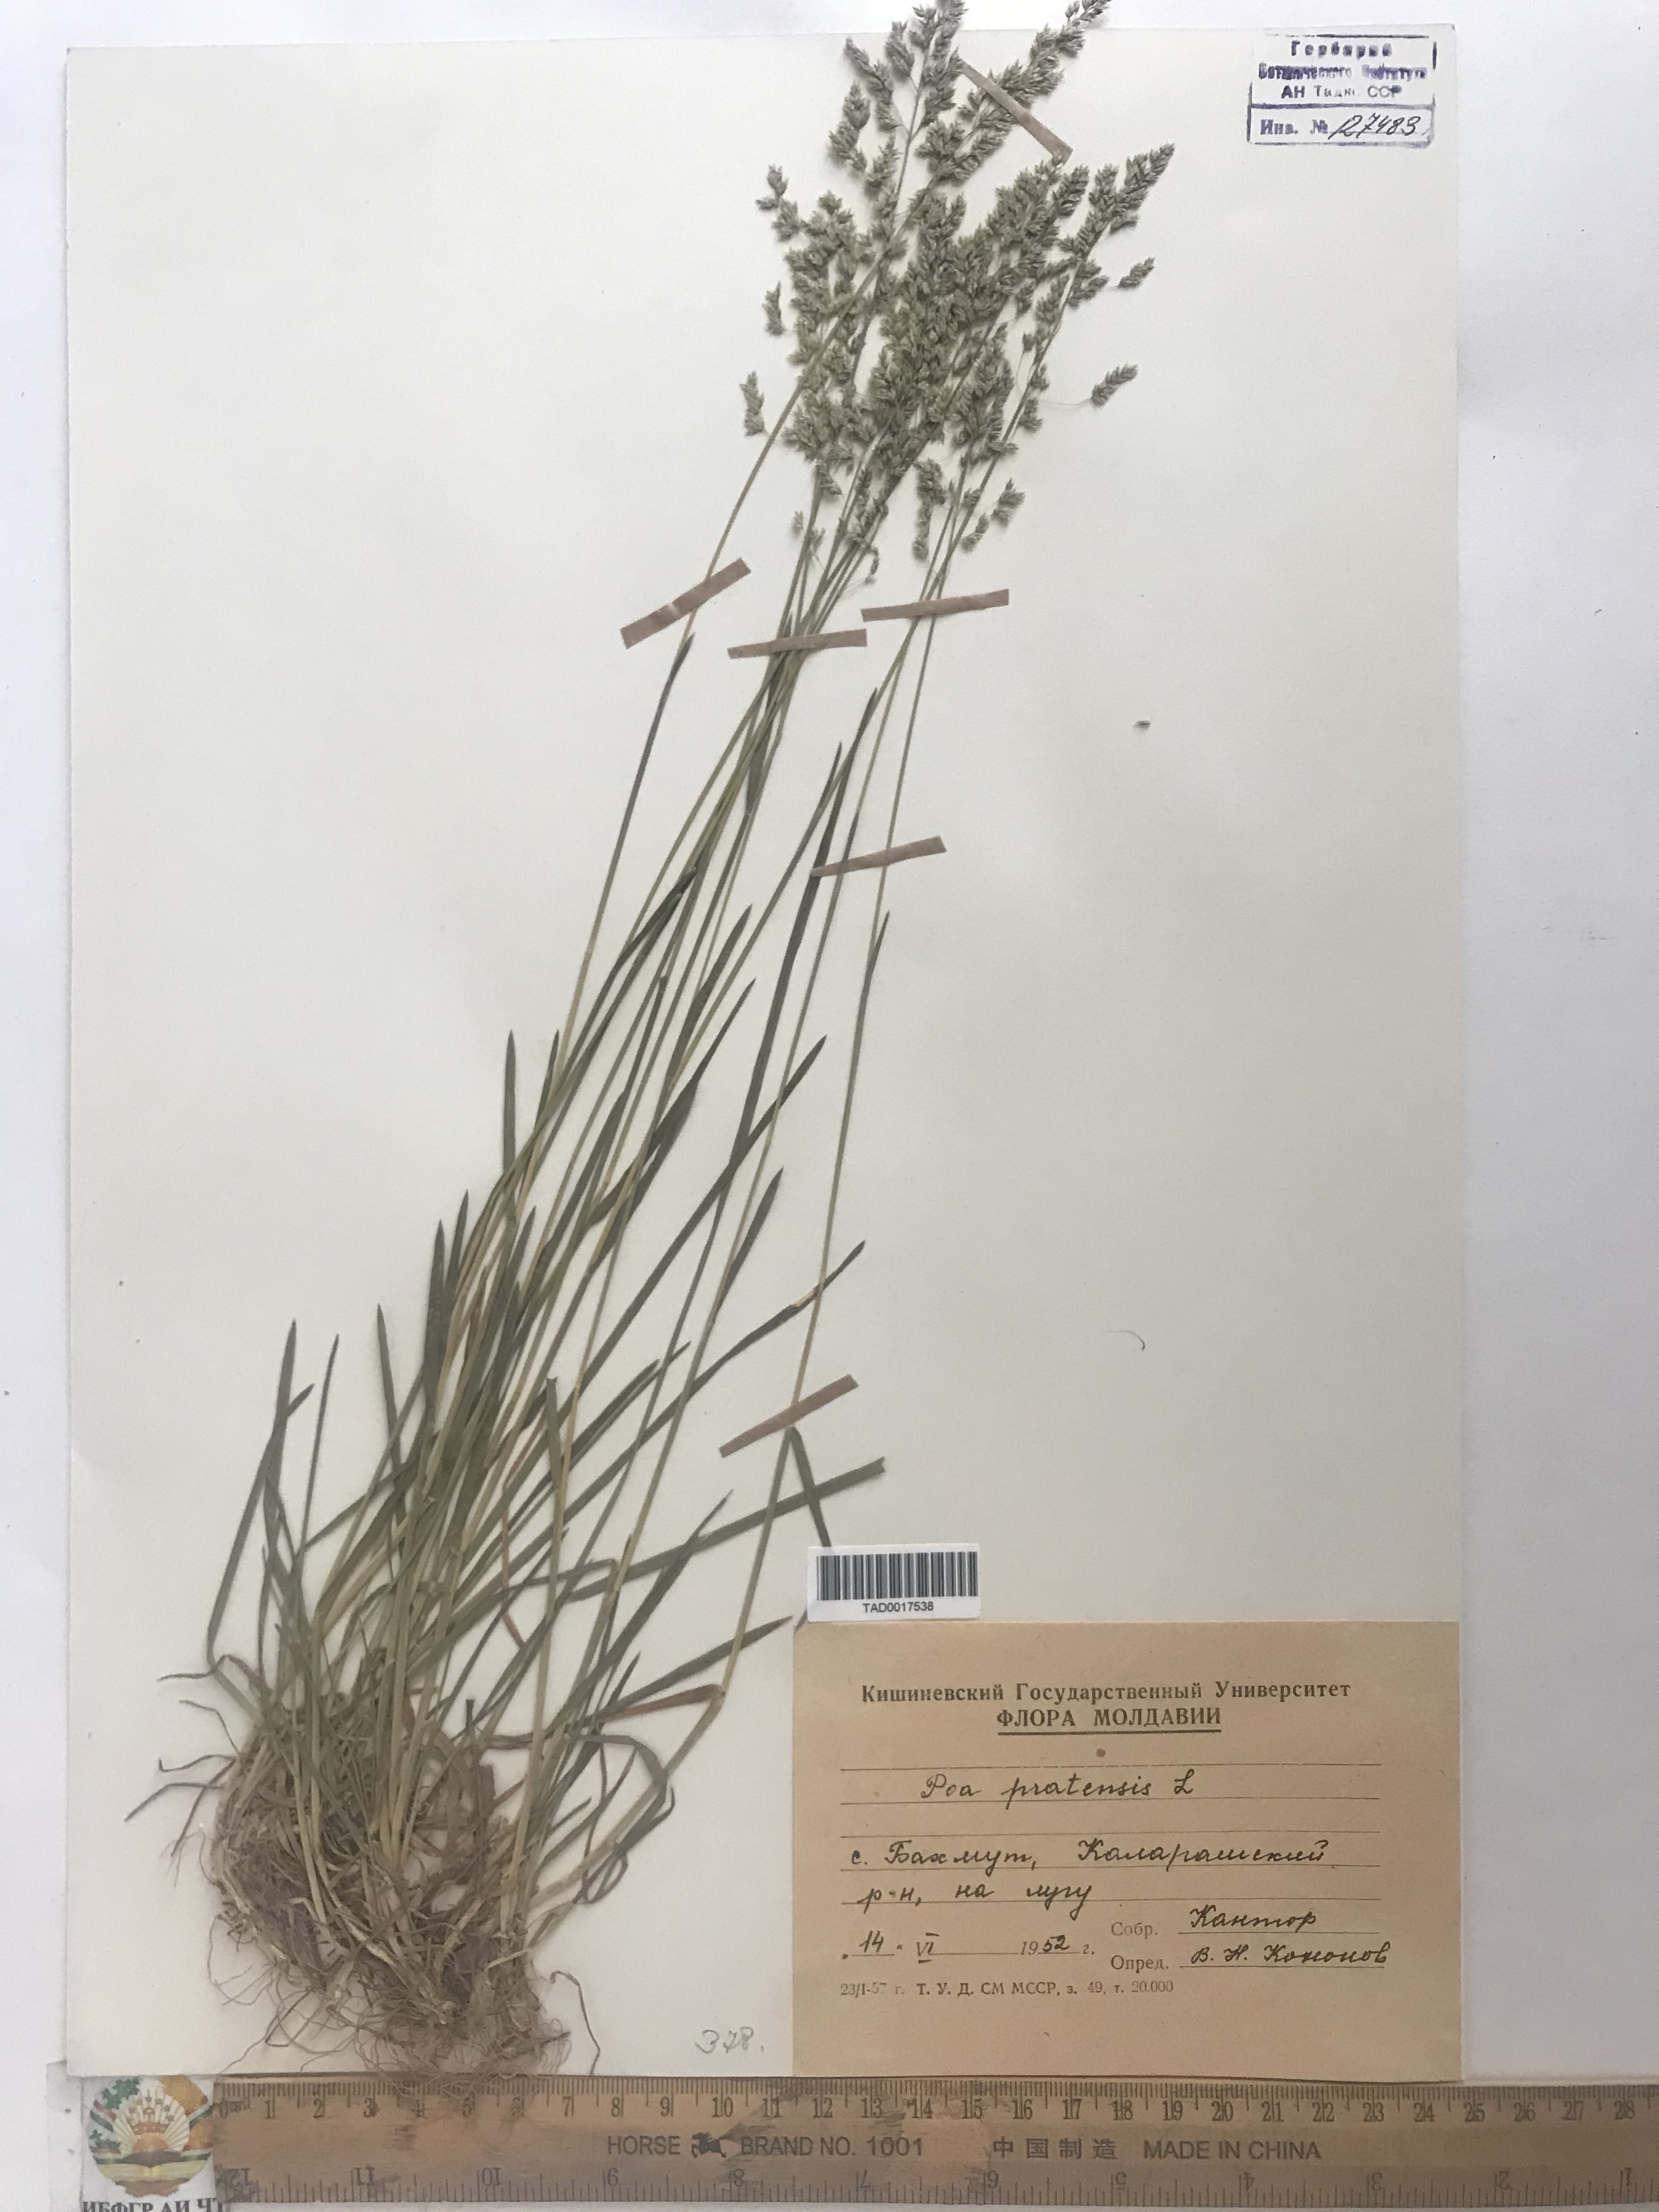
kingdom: Plantae
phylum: Tracheophyta
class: Liliopsida
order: Poales
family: Poaceae
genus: Poa
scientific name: Poa pratensis
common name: Kentucky bluegrass
